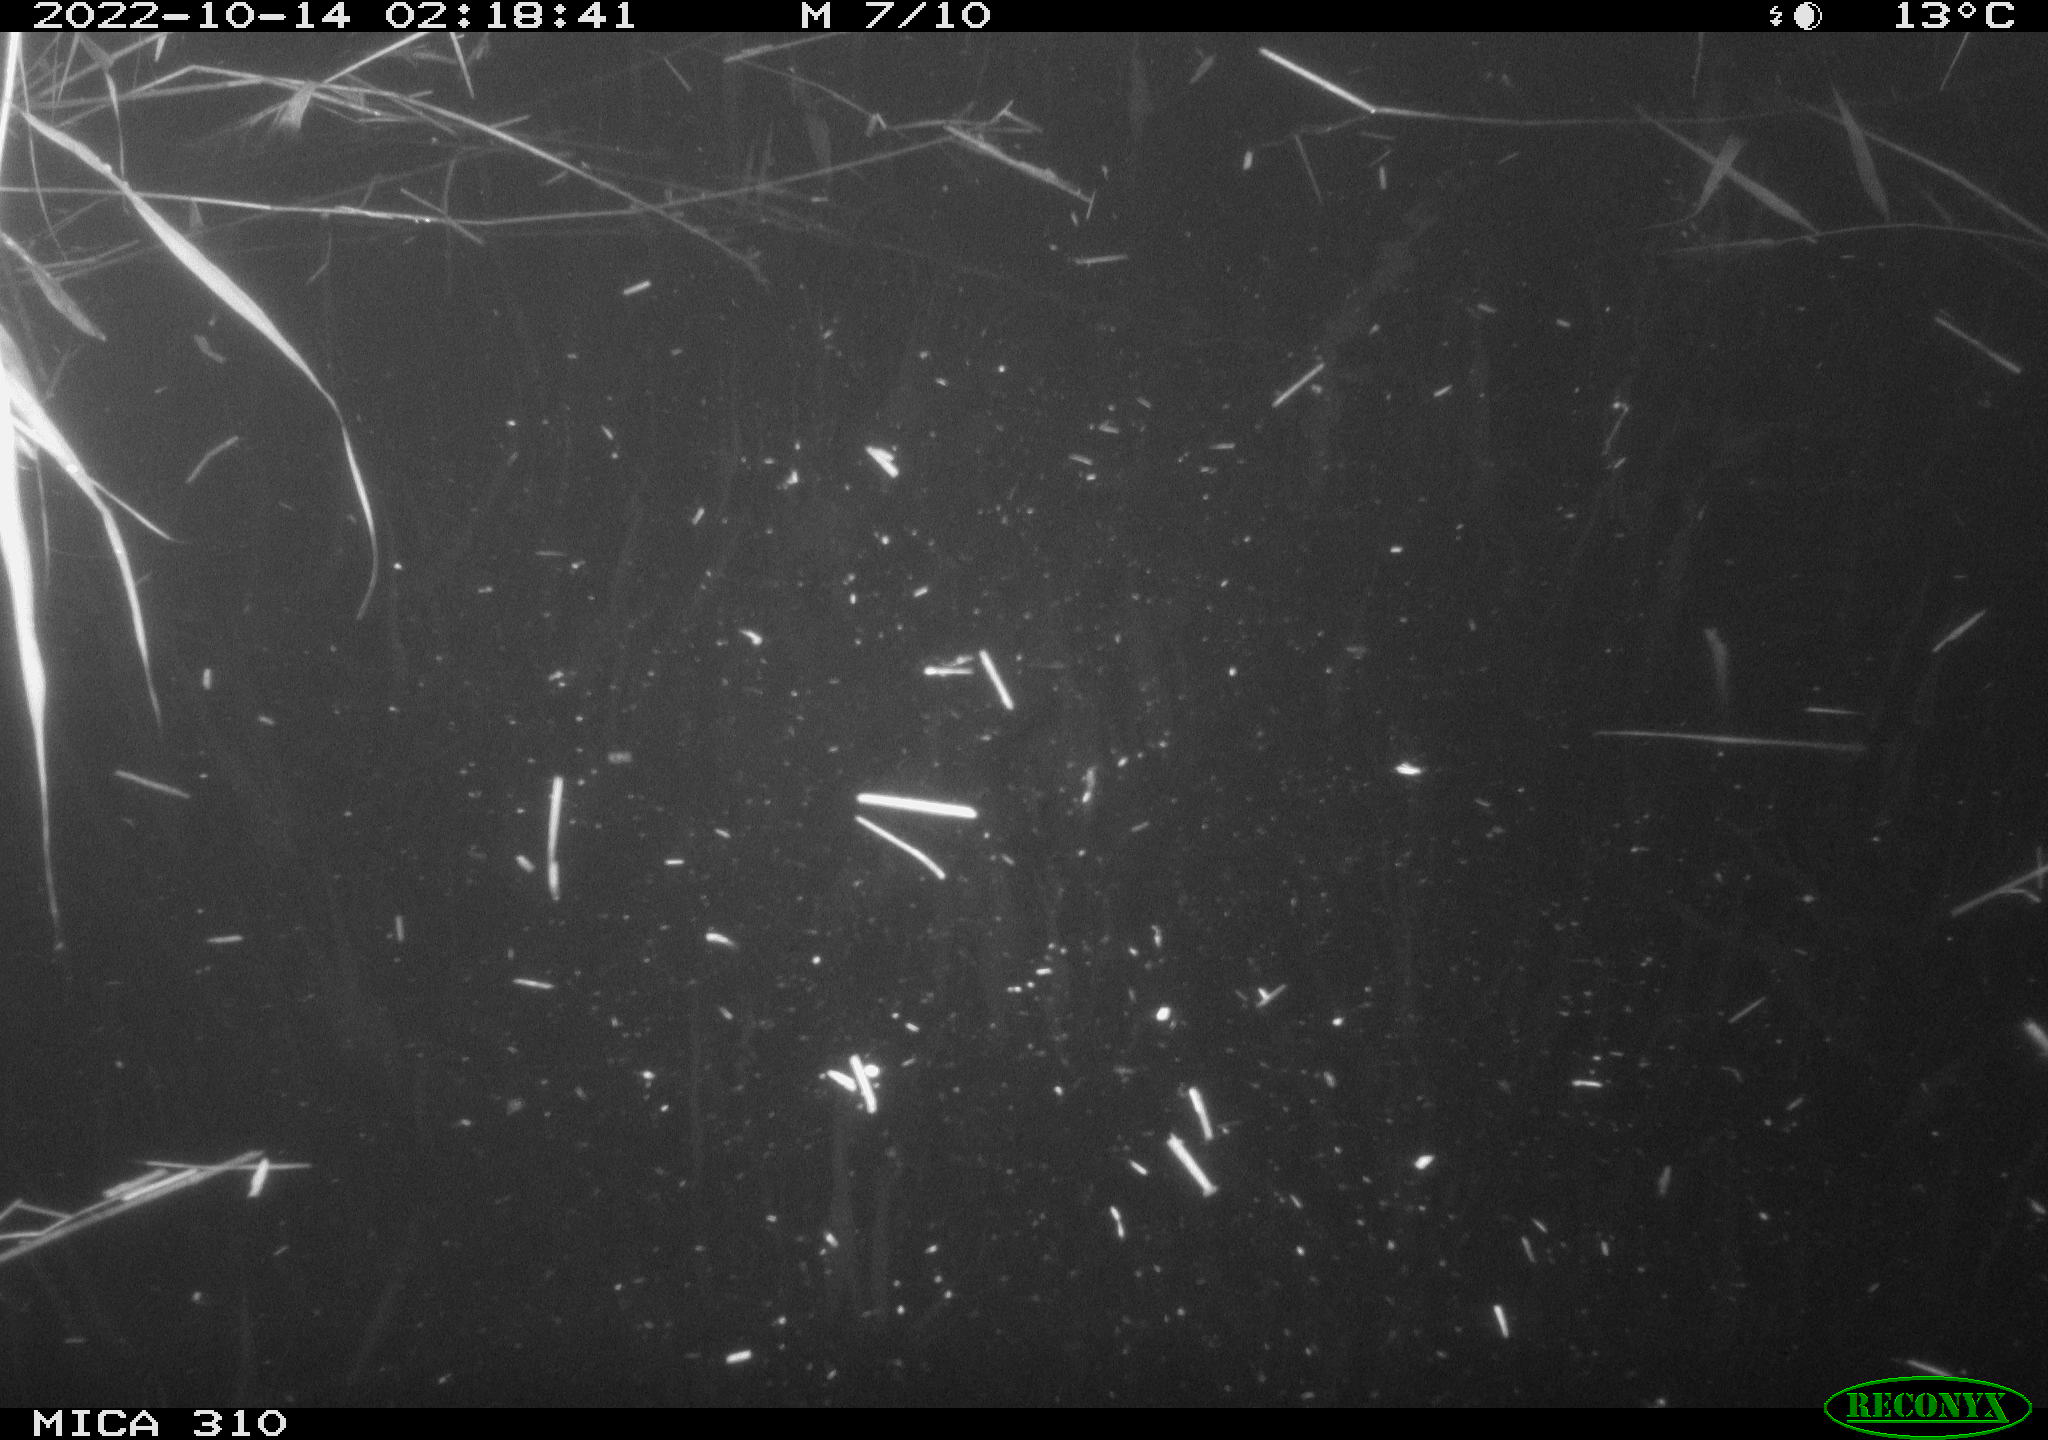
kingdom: Animalia
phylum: Chordata
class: Mammalia
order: Rodentia
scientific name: Rodentia
